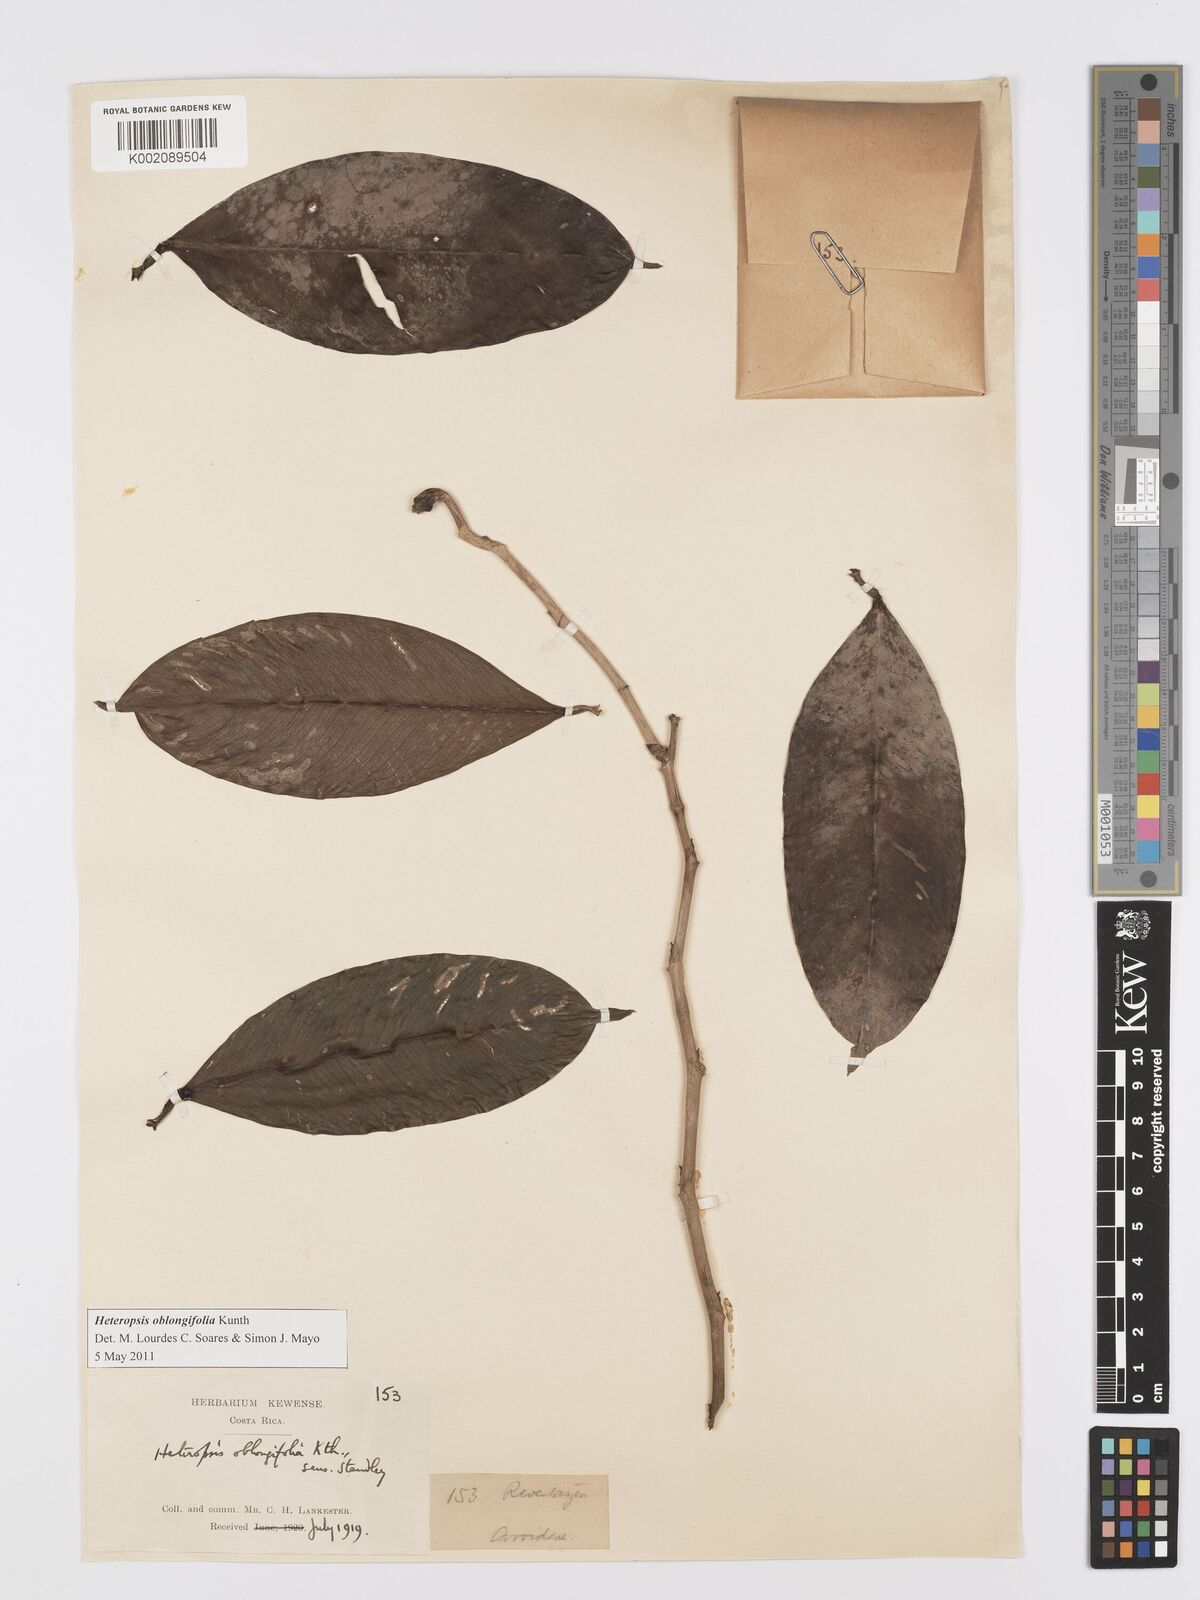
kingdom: Plantae
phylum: Tracheophyta
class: Liliopsida
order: Alismatales
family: Araceae
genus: Heteropsis
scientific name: Heteropsis oblongifolia
